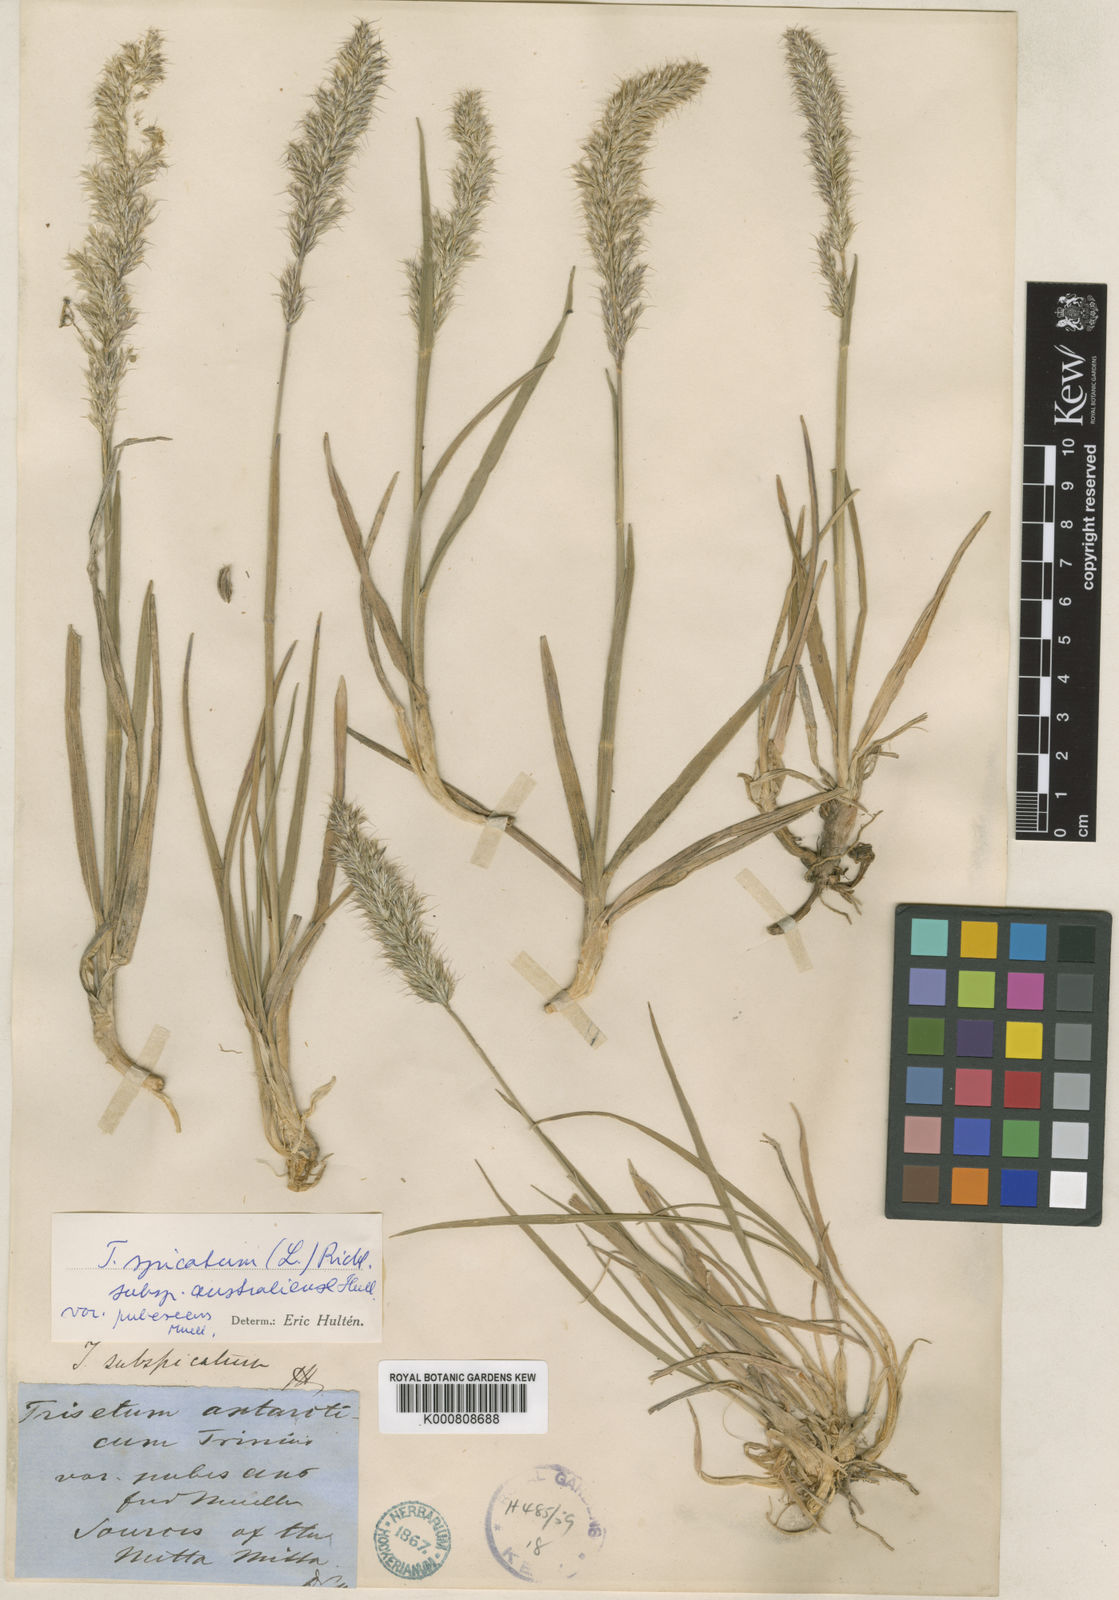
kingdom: Plantae
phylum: Tracheophyta
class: Liliopsida
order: Poales
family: Poaceae
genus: Koeleria
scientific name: Koeleria spicata
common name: Mountain trisetum
